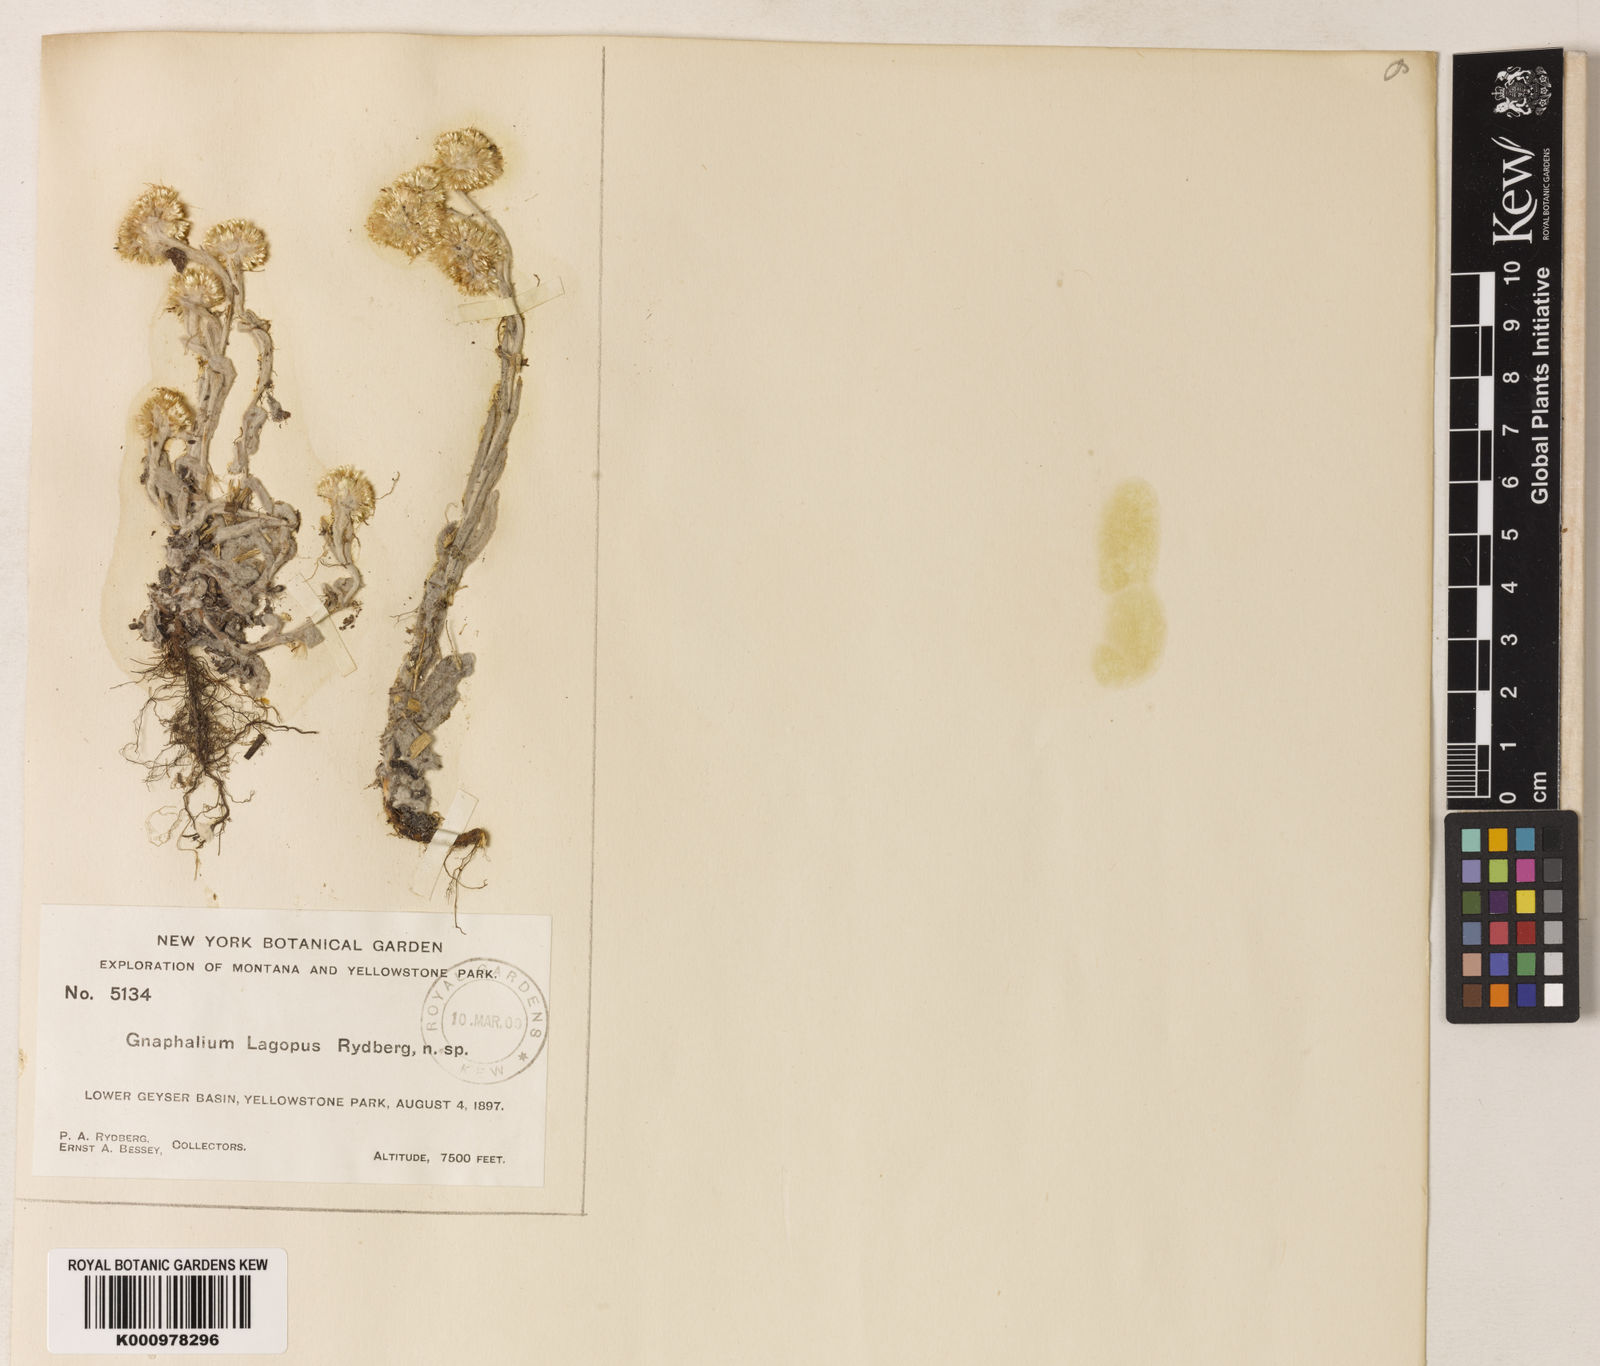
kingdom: Plantae
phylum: Tracheophyta
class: Magnoliopsida
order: Asterales
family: Asteraceae
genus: Gnaphalium
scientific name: Gnaphalium
